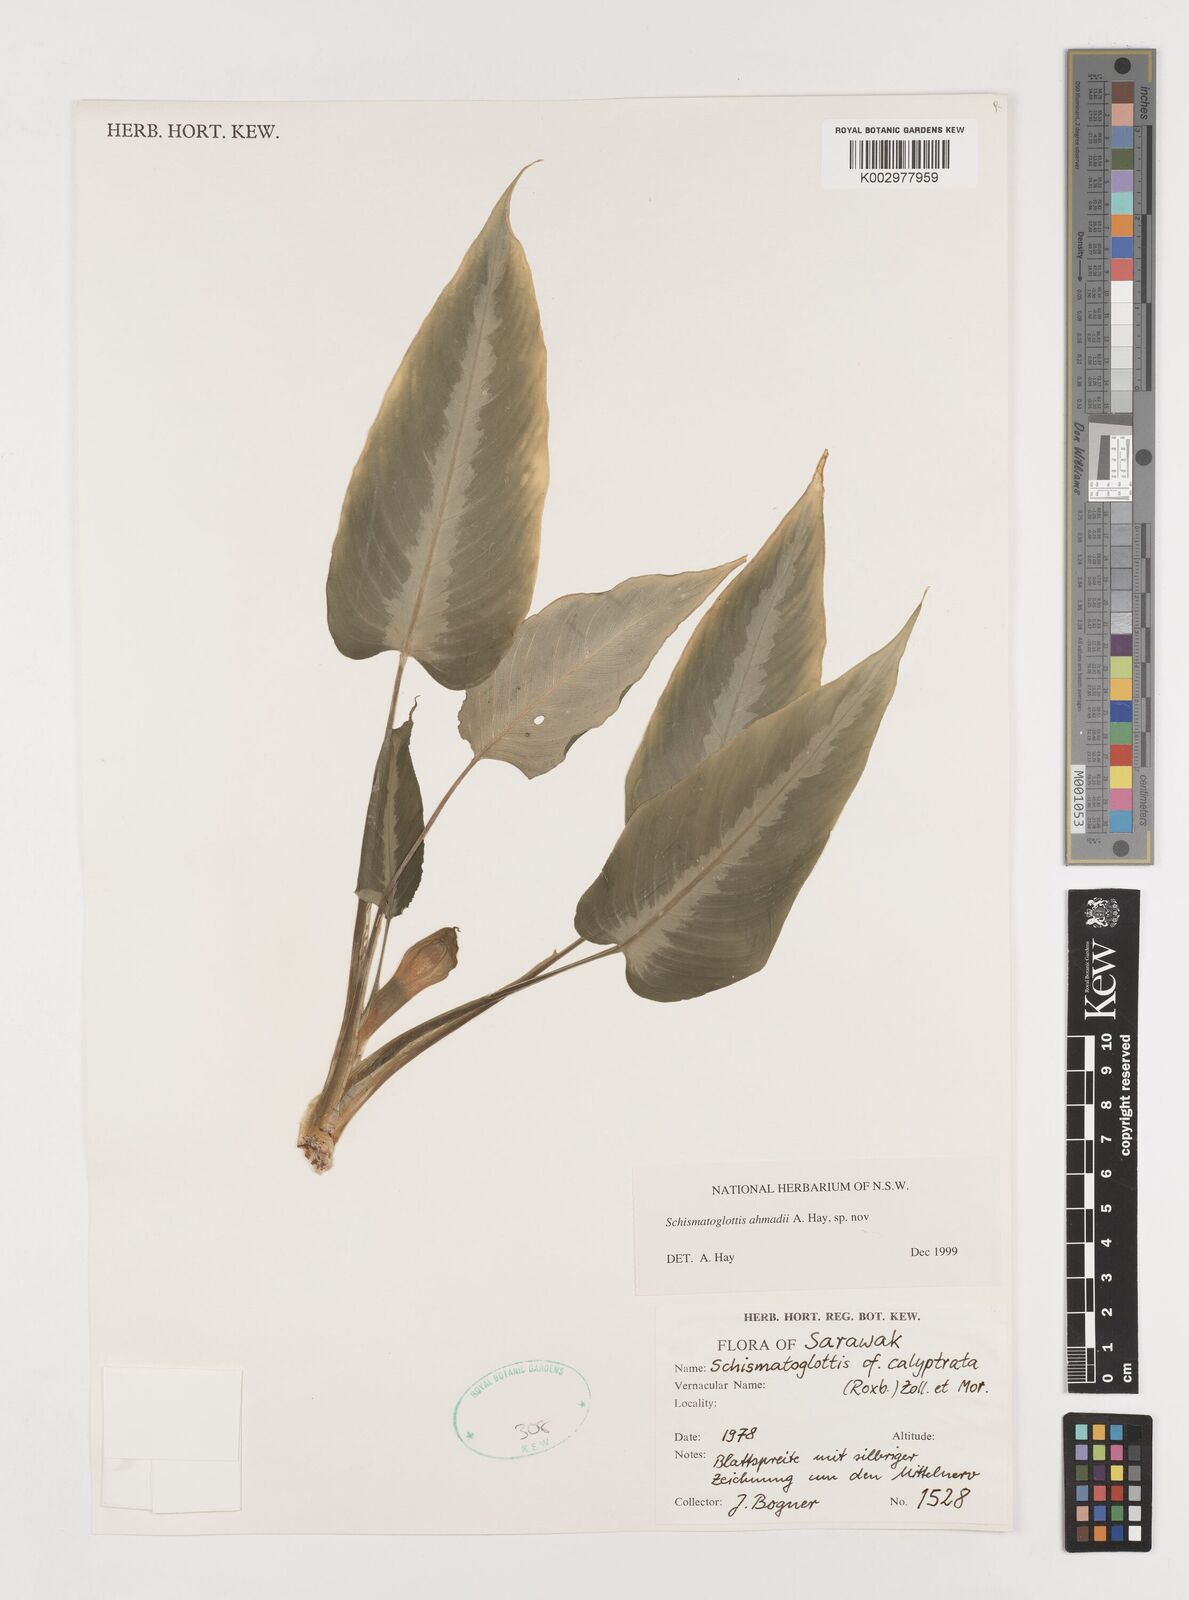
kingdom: Plantae
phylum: Tracheophyta
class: Liliopsida
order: Alismatales
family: Araceae
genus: Schismatoglottis
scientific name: Schismatoglottis ahmadii
